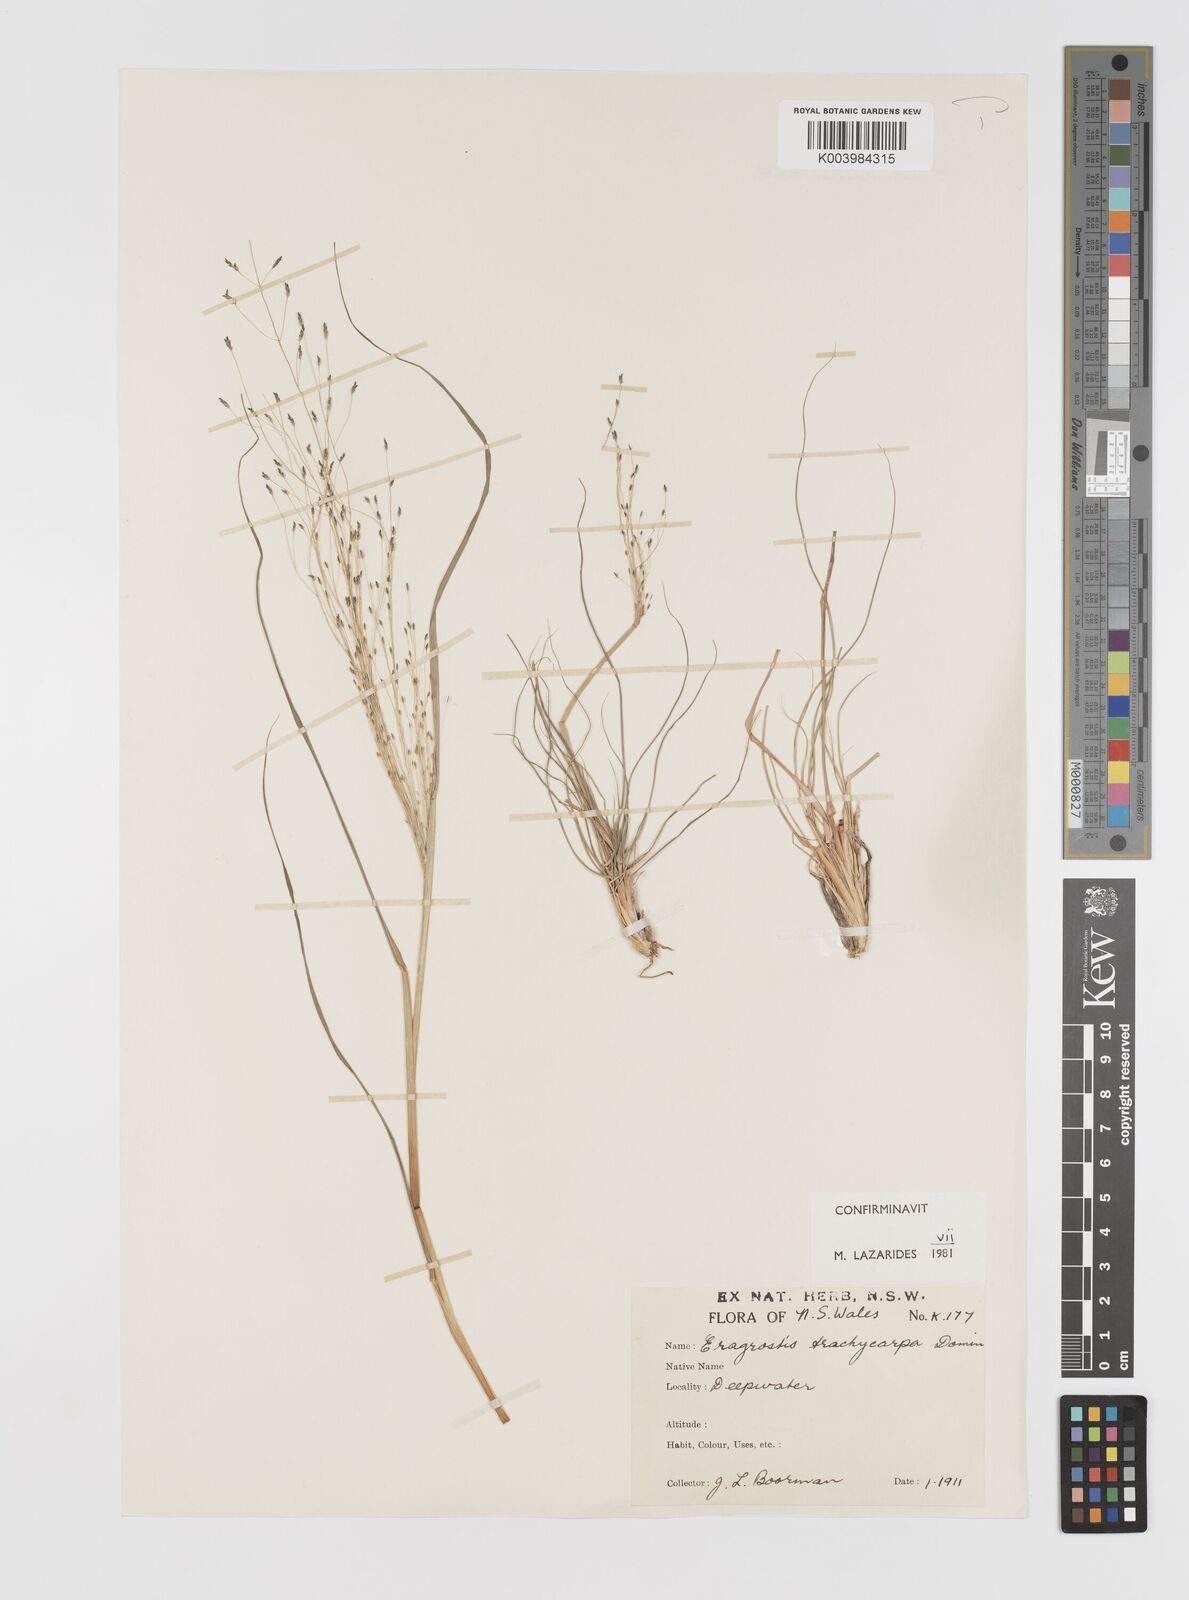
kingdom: Plantae
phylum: Tracheophyta
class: Liliopsida
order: Poales
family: Poaceae
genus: Eragrostis
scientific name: Eragrostis trachycarpa
